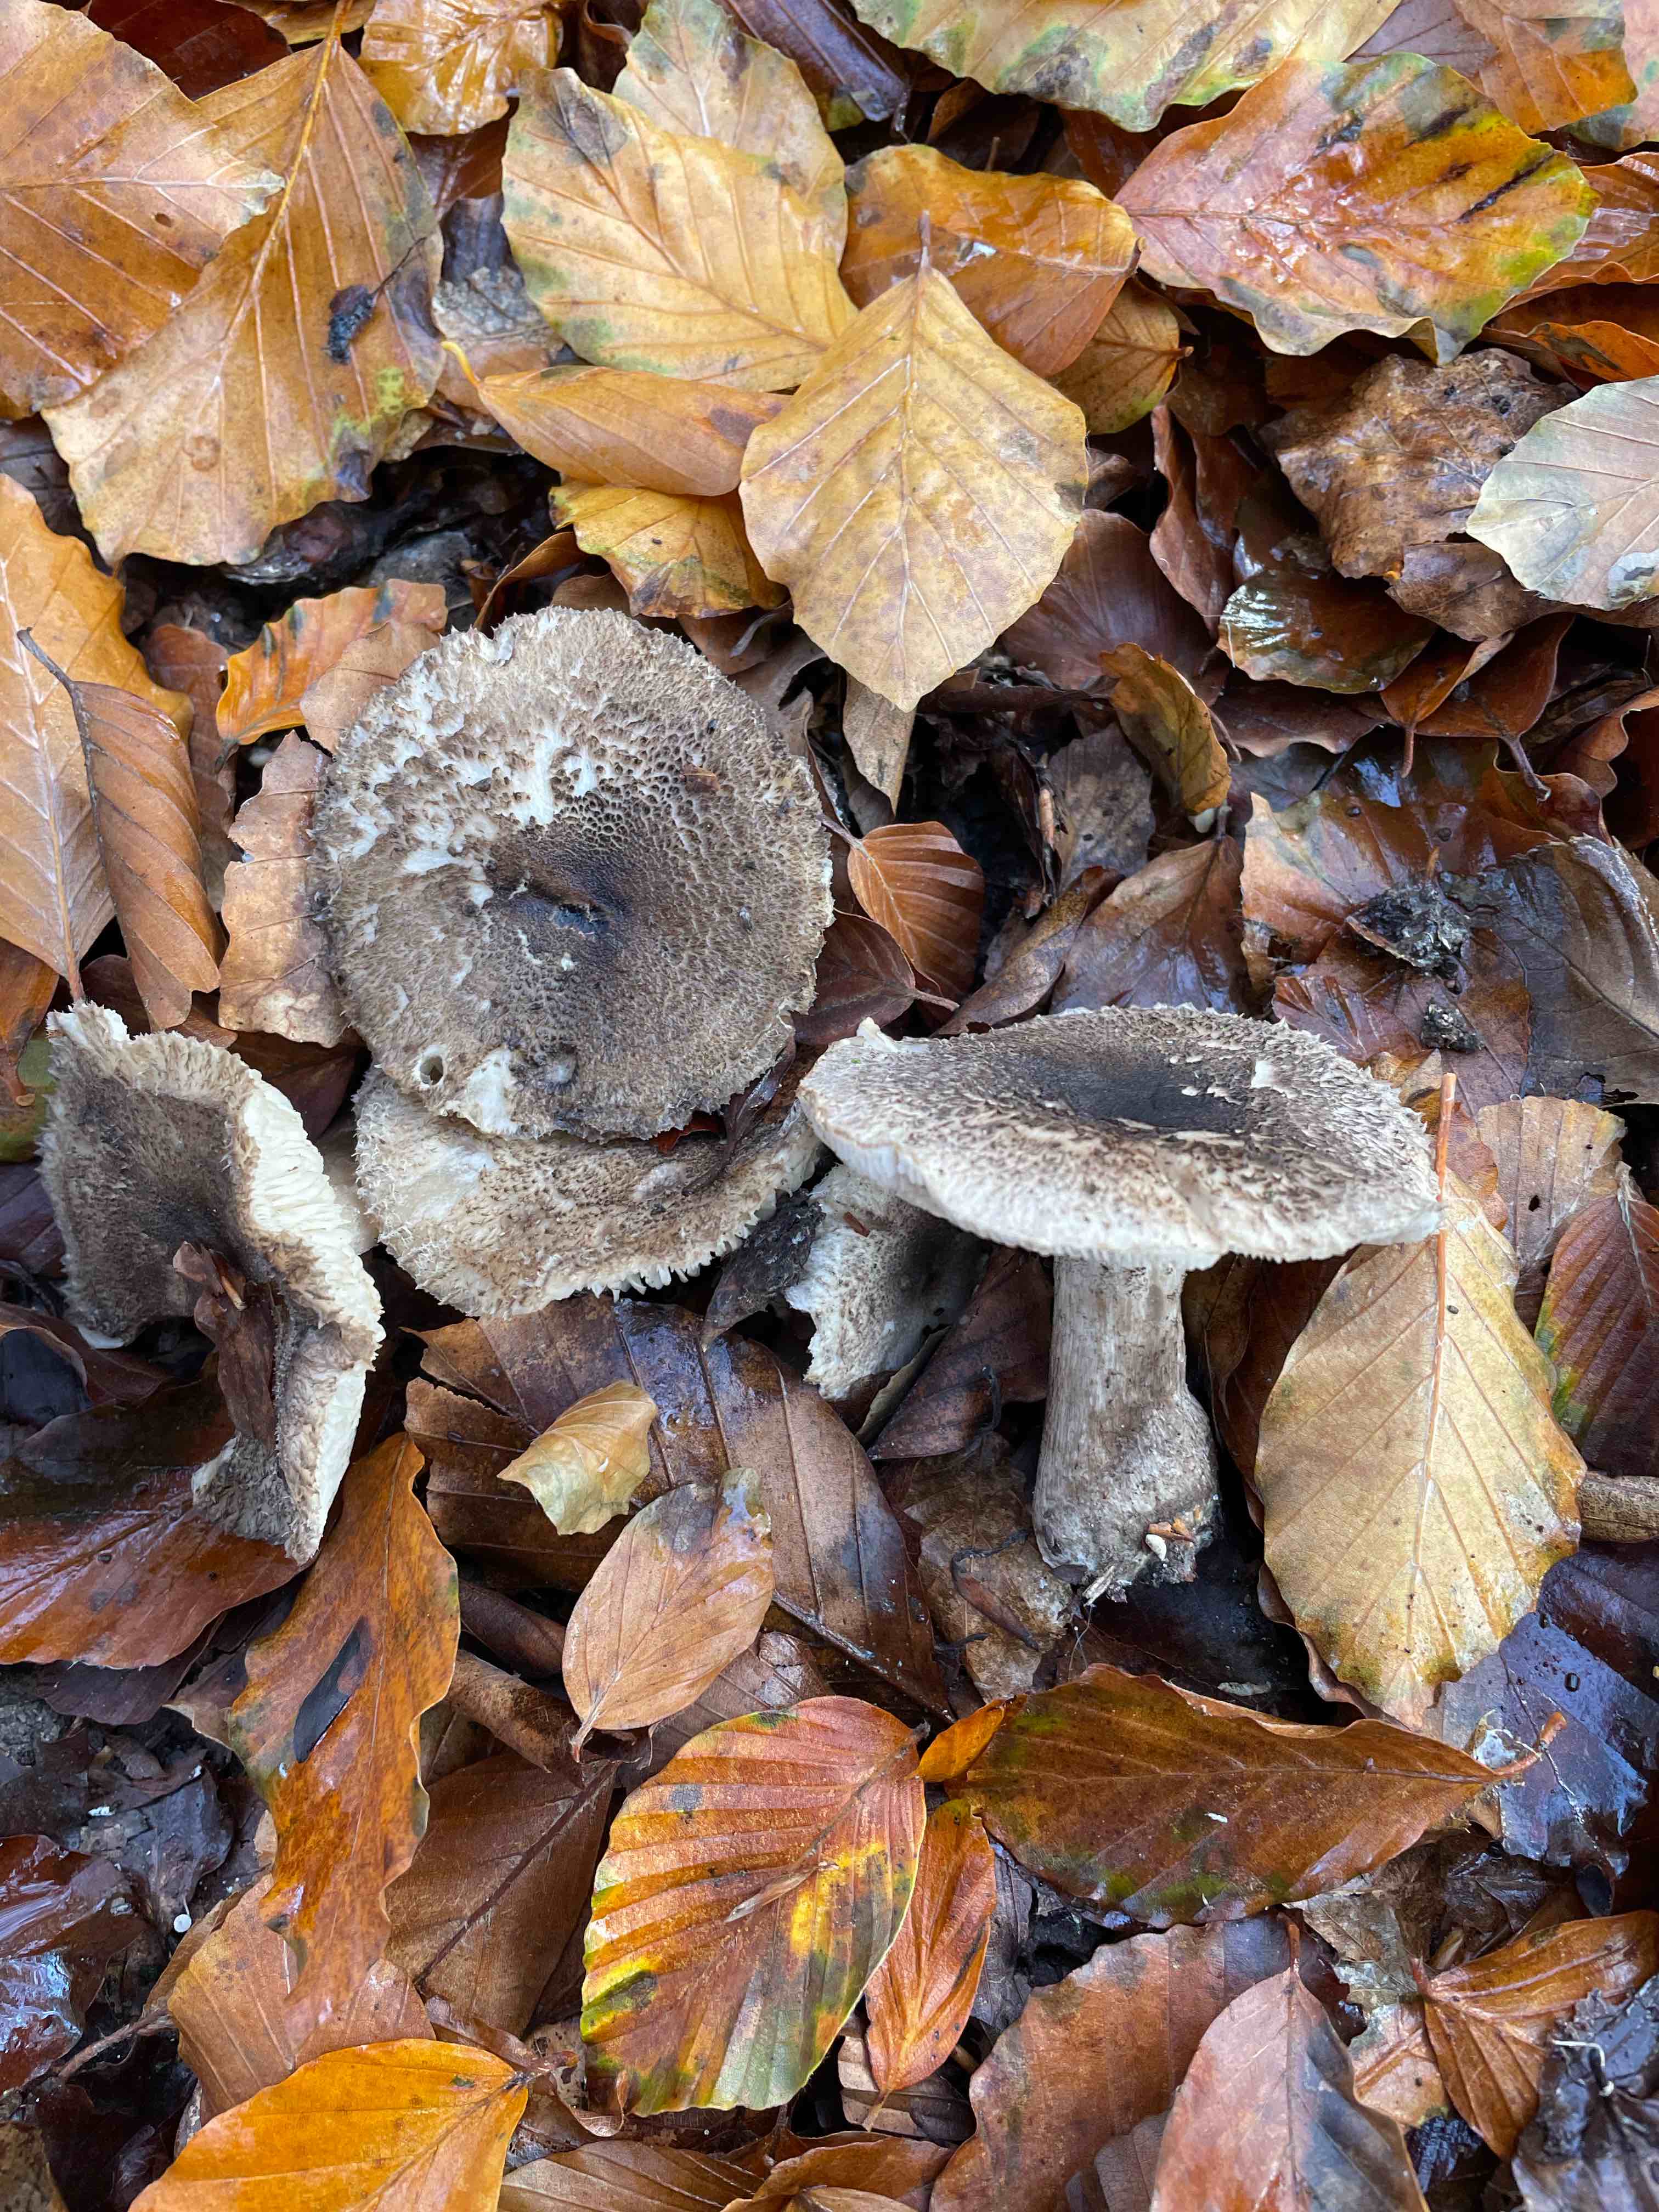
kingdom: Fungi
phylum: Basidiomycota
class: Agaricomycetes
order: Agaricales
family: Tricholomataceae
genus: Tricholoma
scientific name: Tricholoma atrosquamosum
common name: sortskællet ridderhat
